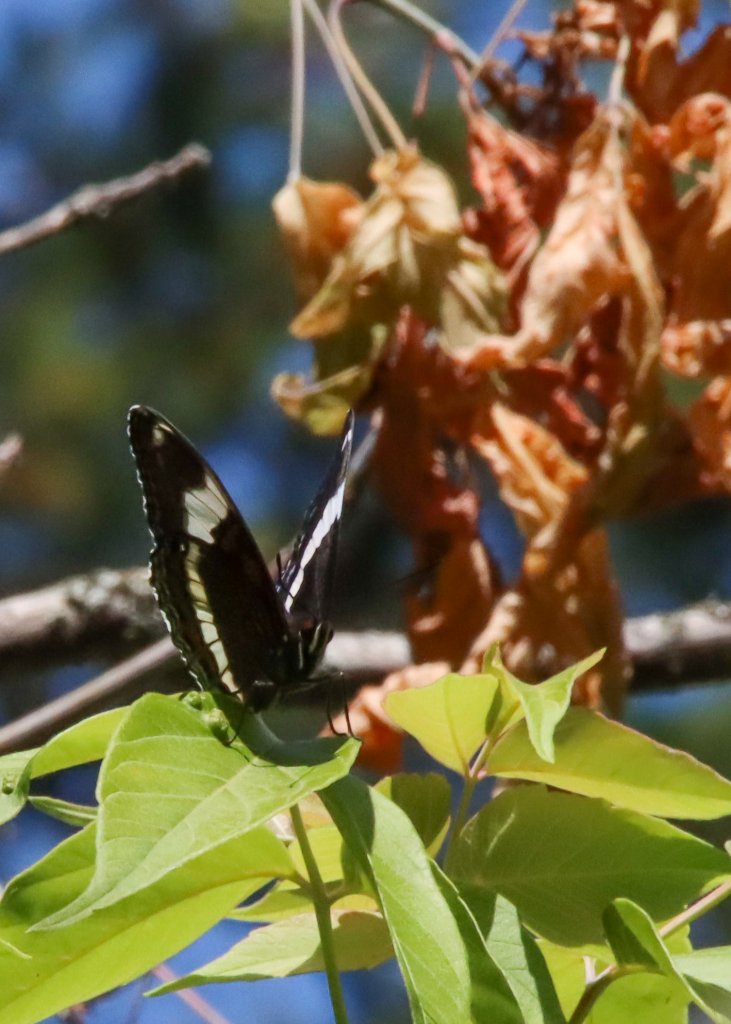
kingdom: Animalia
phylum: Arthropoda
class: Insecta
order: Lepidoptera
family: Nymphalidae
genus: Limenitis
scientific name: Limenitis arthemis
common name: Red-spotted Admiral
